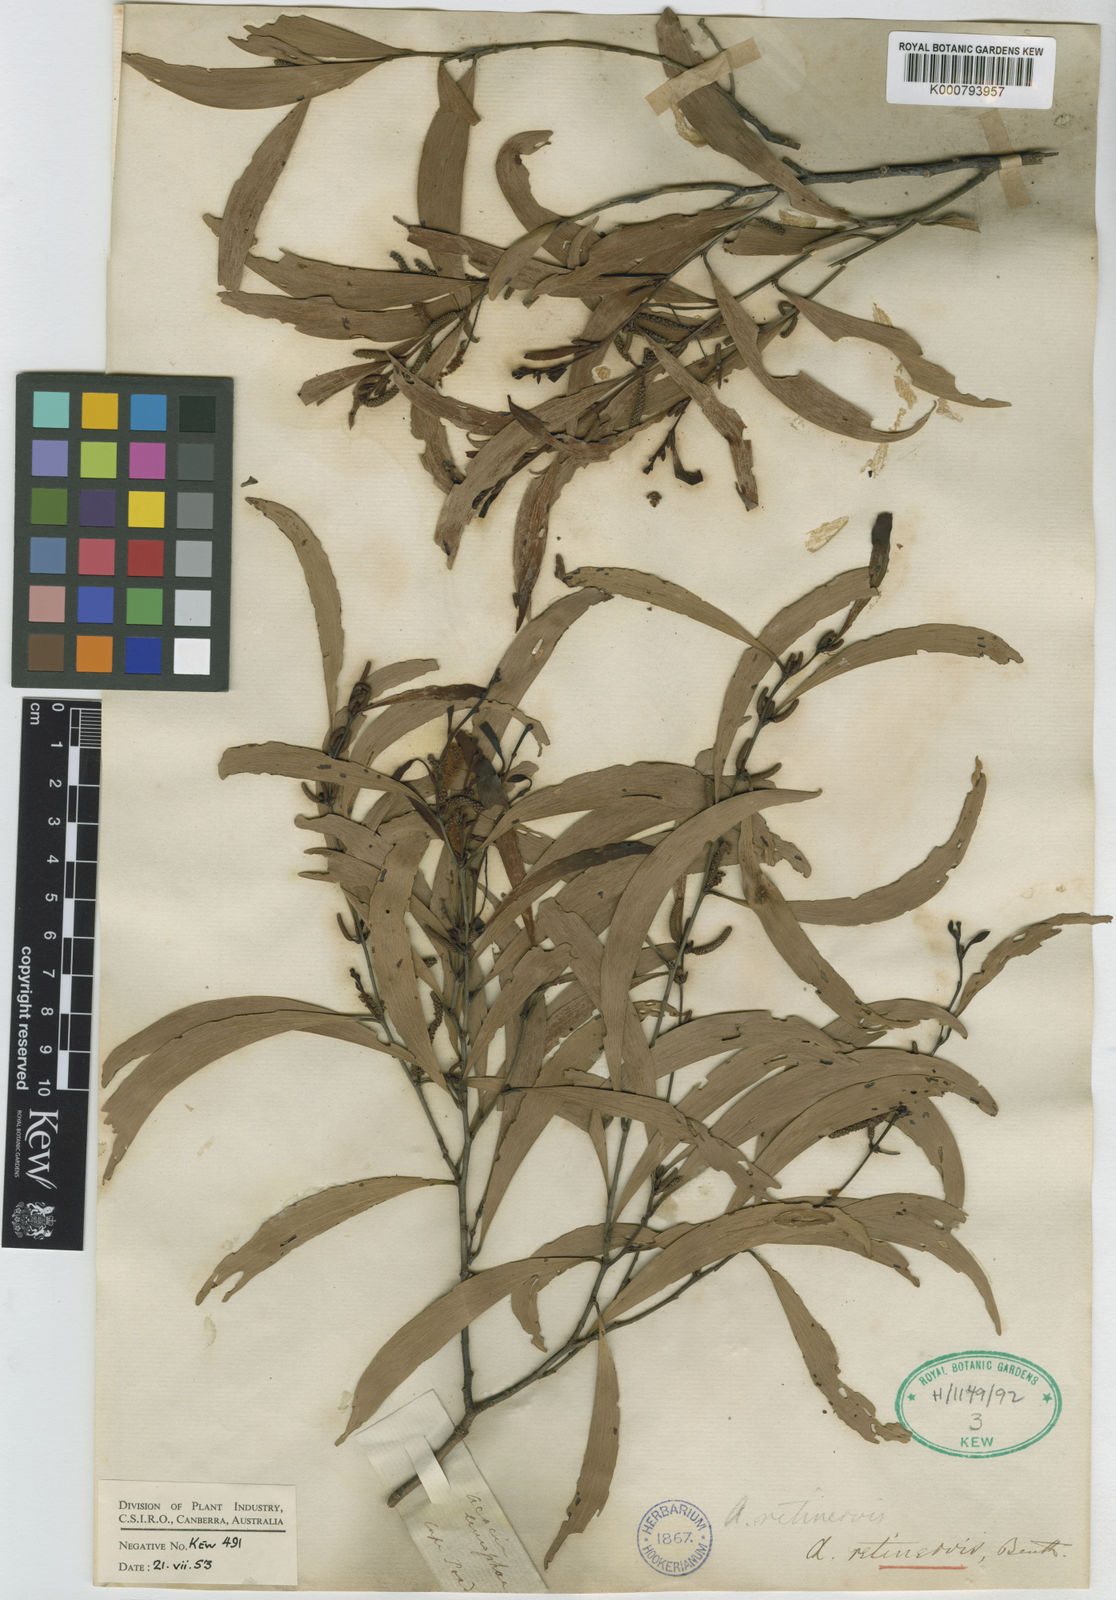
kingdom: Plantae
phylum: Tracheophyta
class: Magnoliopsida
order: Fabales
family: Fabaceae
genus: Acacia
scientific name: Acacia retinervis
